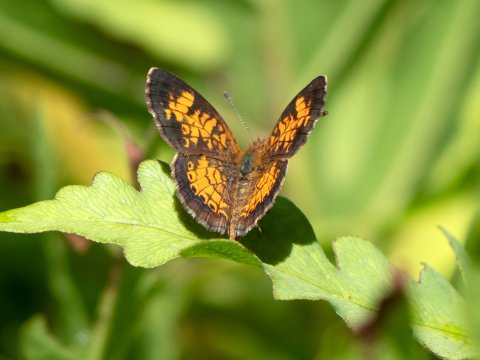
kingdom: Animalia
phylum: Arthropoda
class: Insecta
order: Lepidoptera
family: Nymphalidae
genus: Phyciodes
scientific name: Phyciodes tharos
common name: Pearl Crescent
